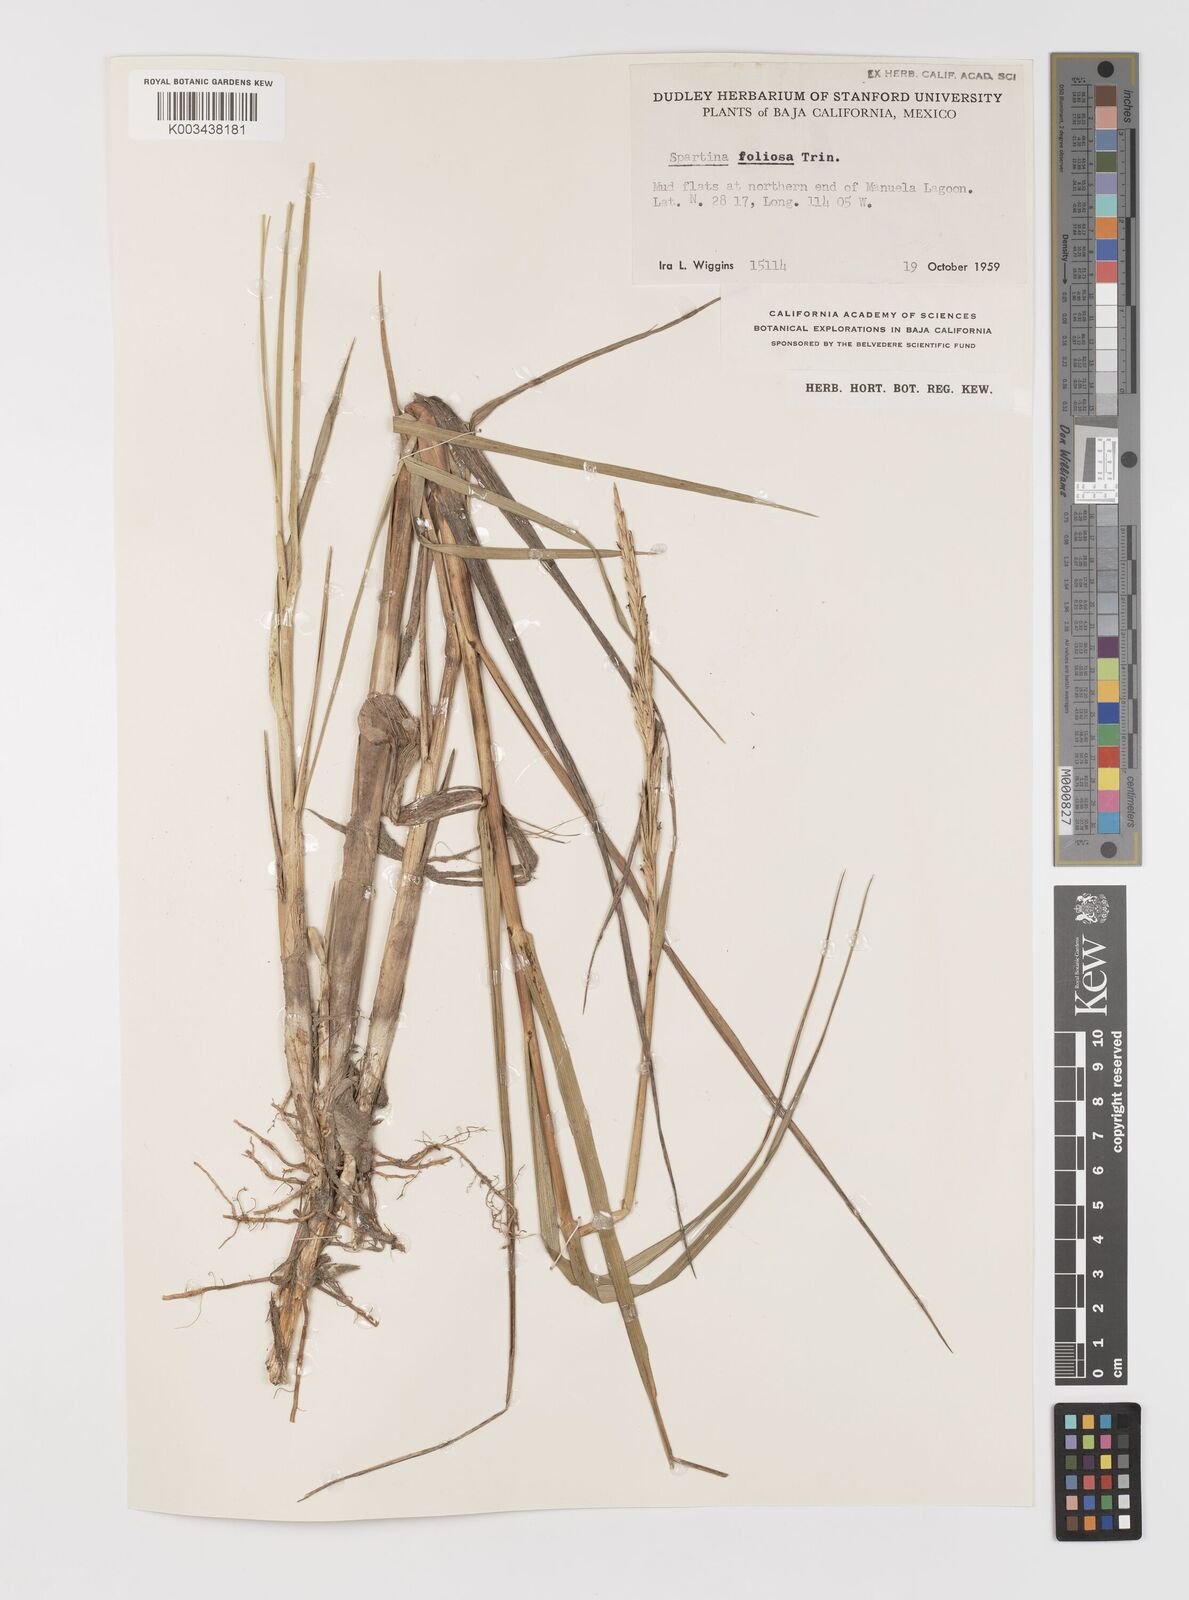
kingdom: Plantae
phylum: Tracheophyta
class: Liliopsida
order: Poales
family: Poaceae
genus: Sporobolus
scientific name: Sporobolus foliosus
